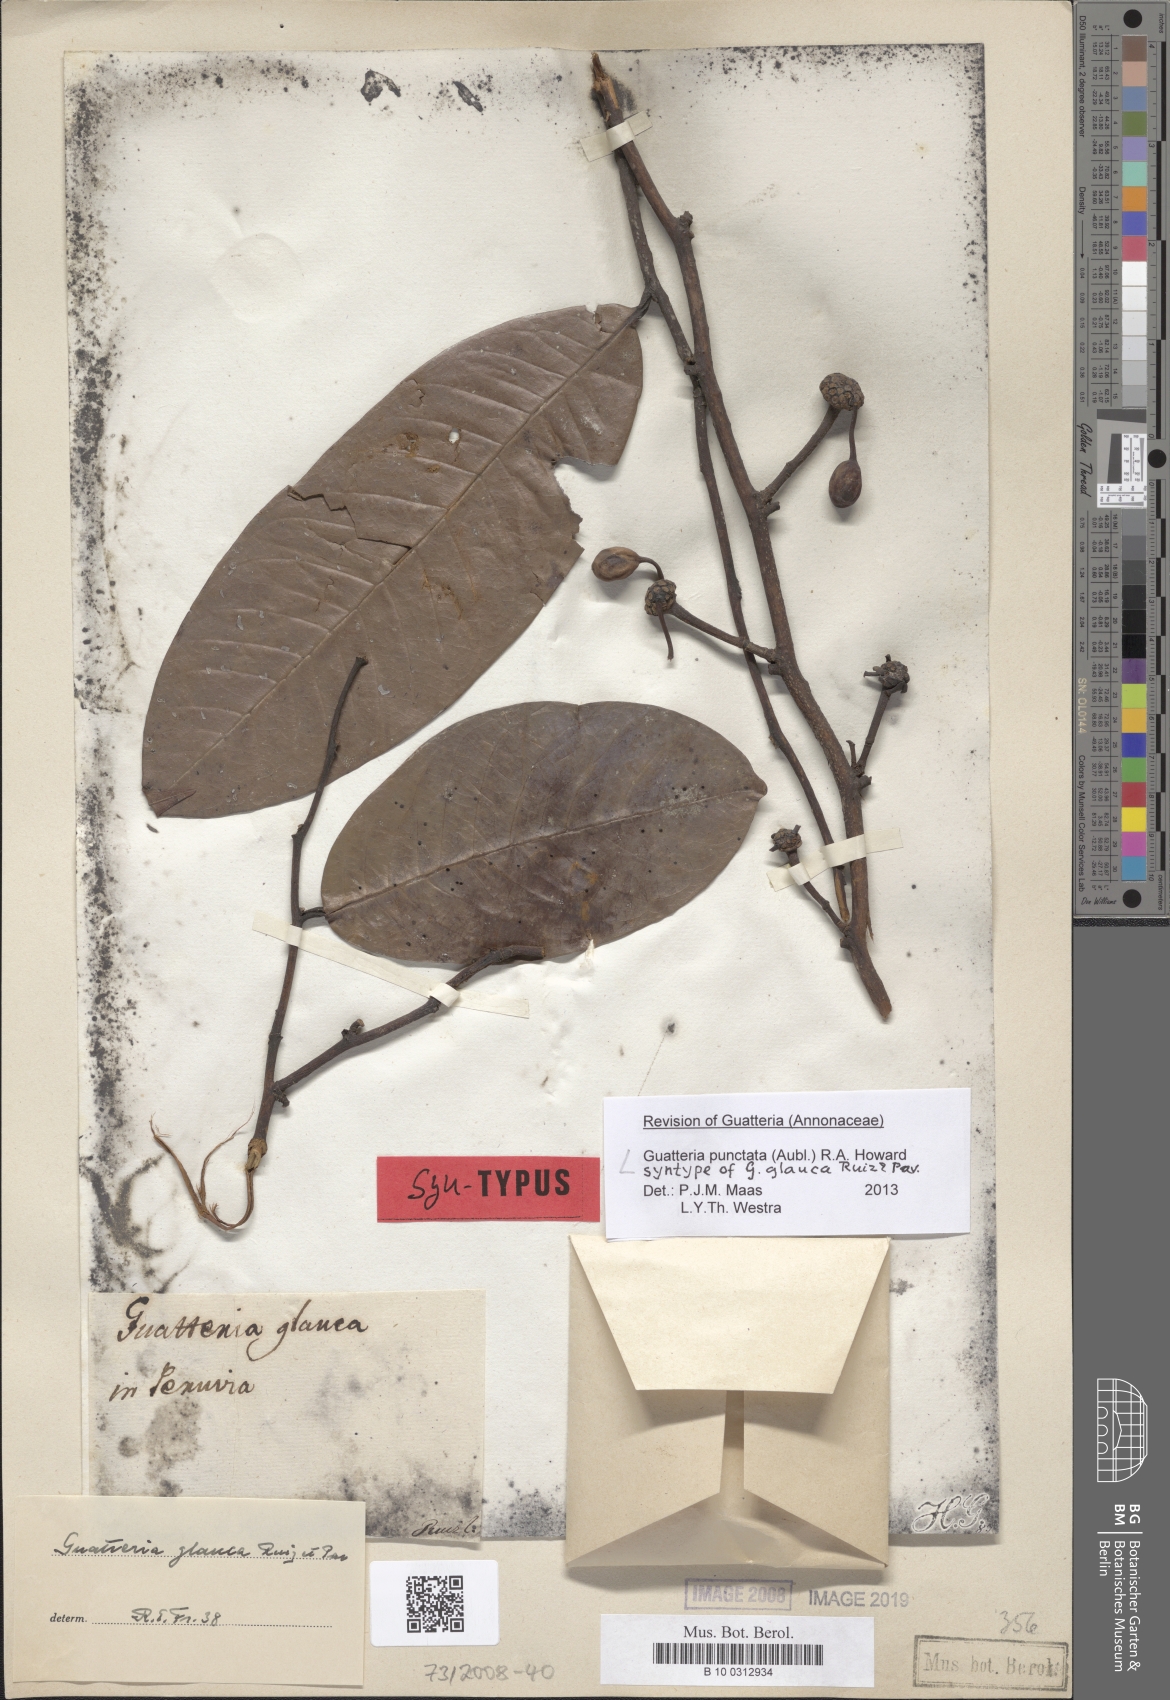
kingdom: Plantae
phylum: Tracheophyta
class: Magnoliopsida
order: Magnoliales
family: Annonaceae
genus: Guatteria
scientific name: Guatteria punctata
